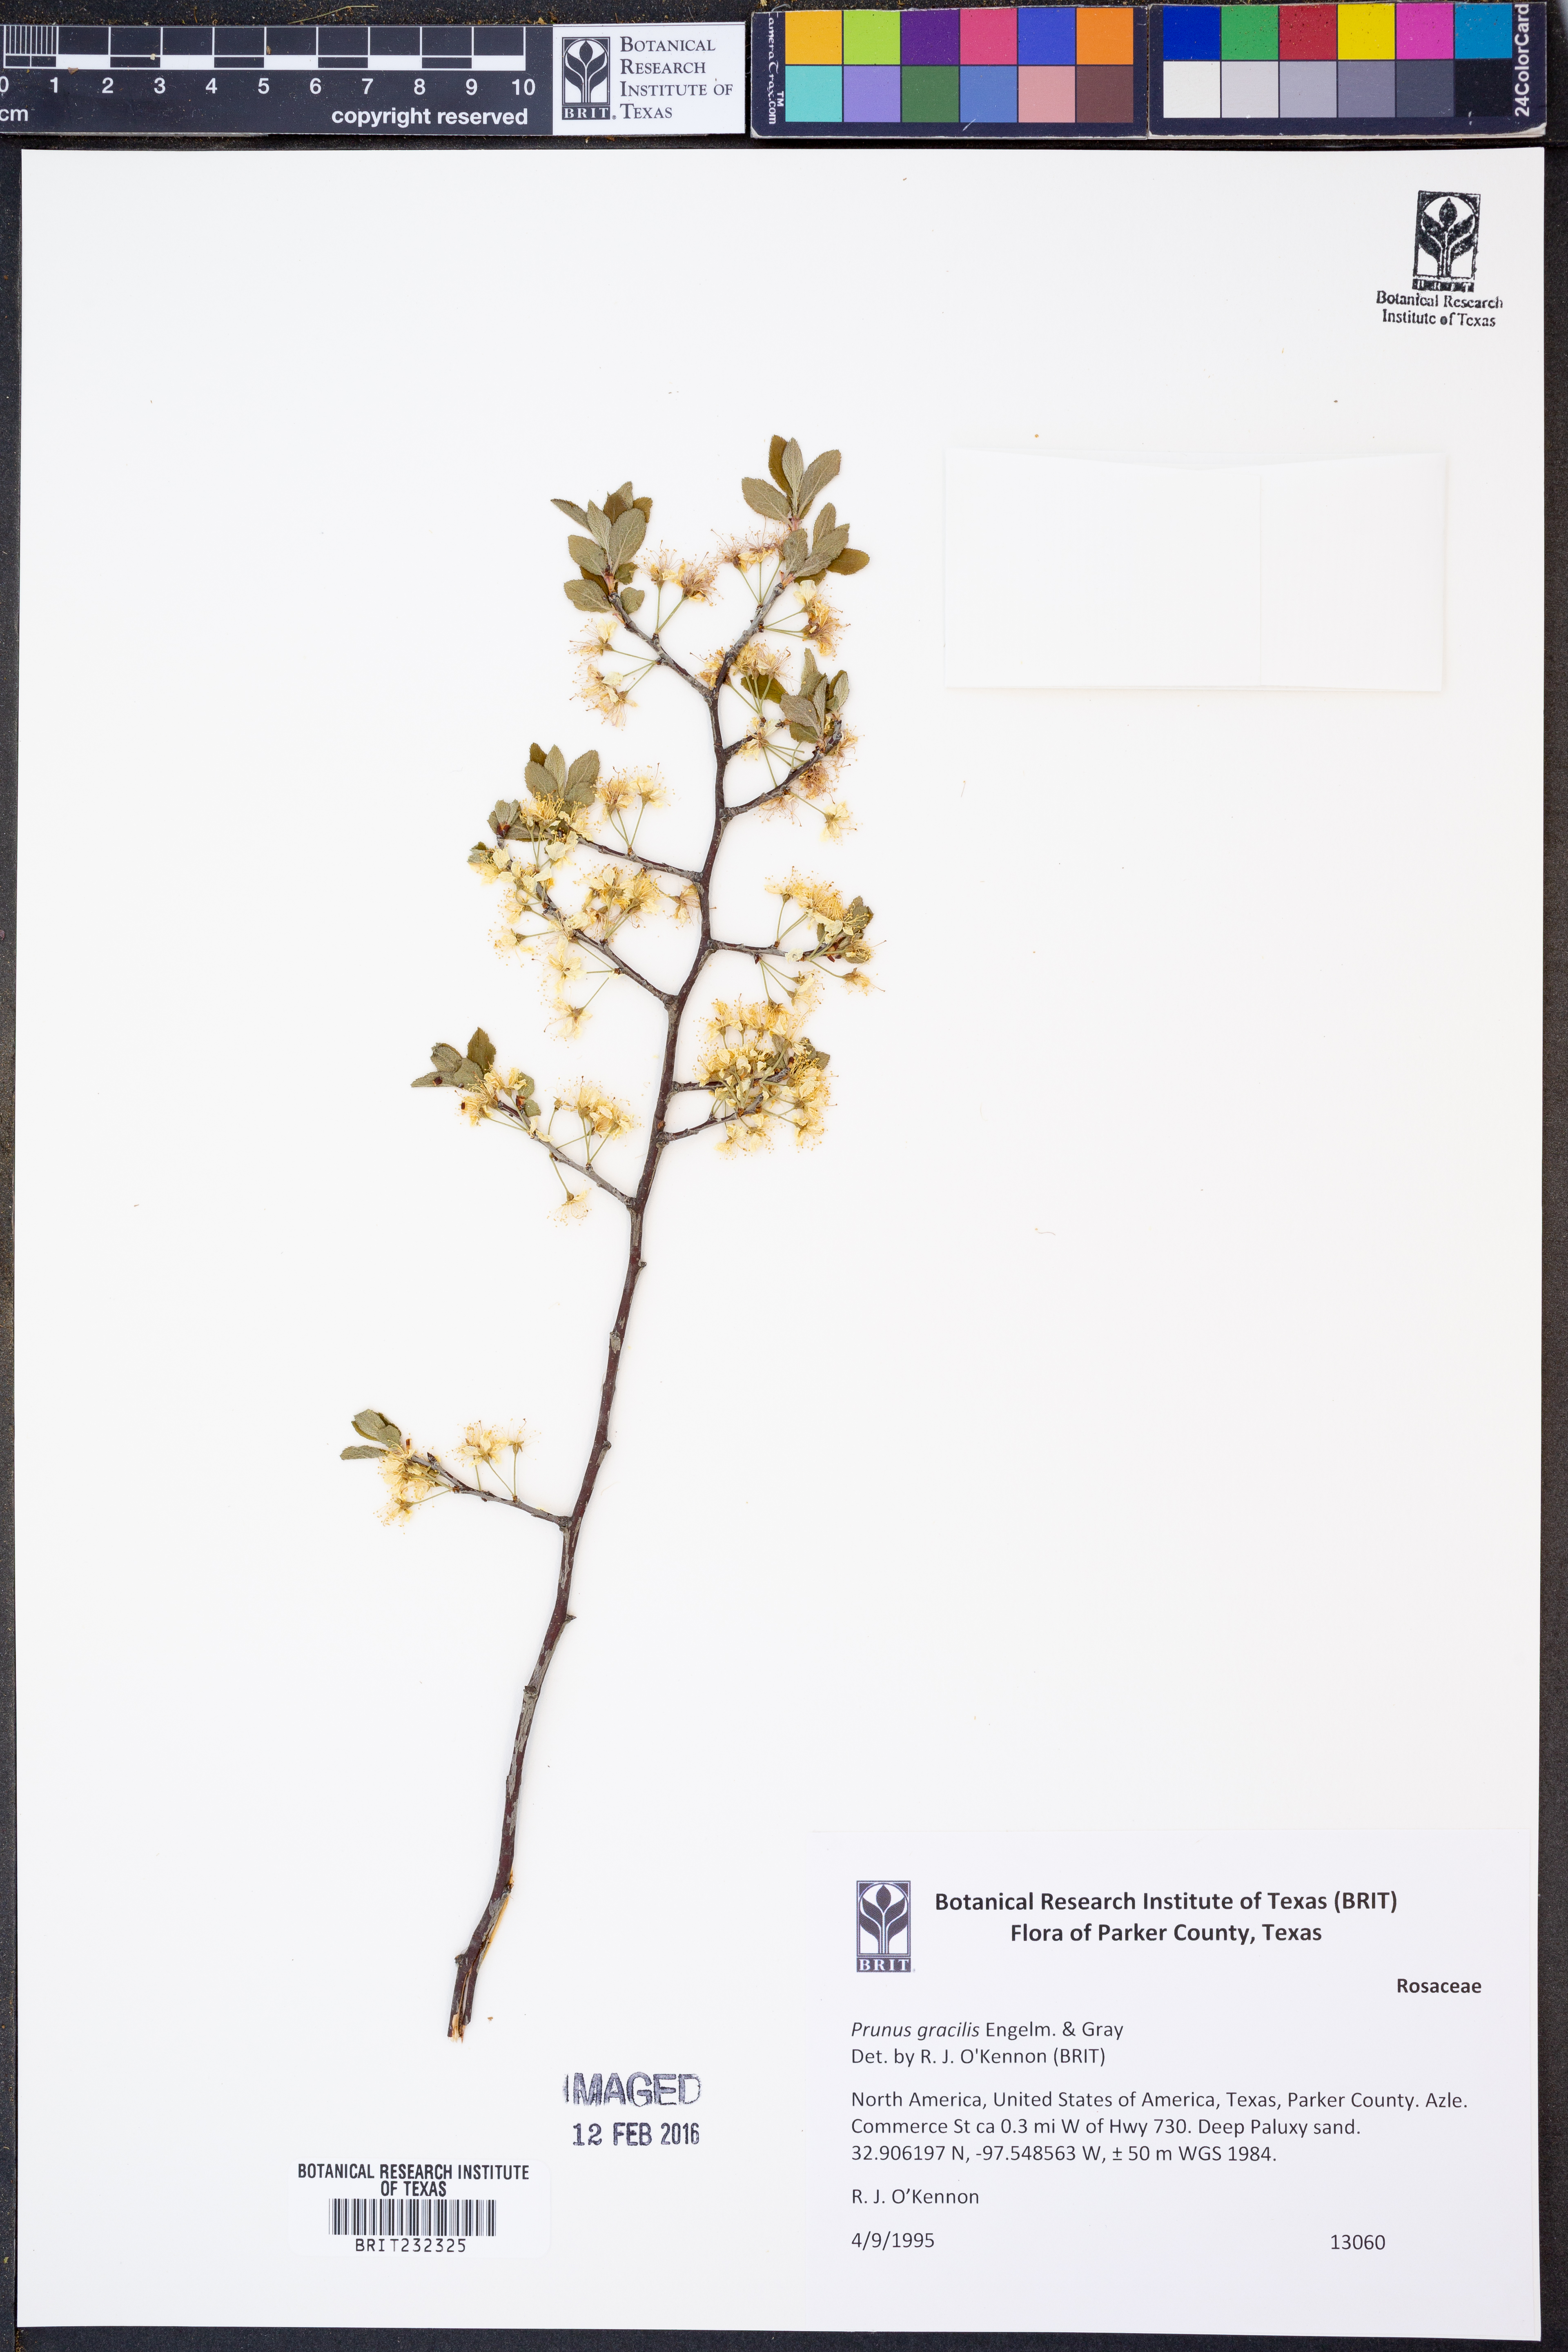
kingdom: Plantae
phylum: Tracheophyta
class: Magnoliopsida
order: Rosales
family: Rosaceae
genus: Prunus
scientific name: Prunus gracilis
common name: Oklahoma plum
